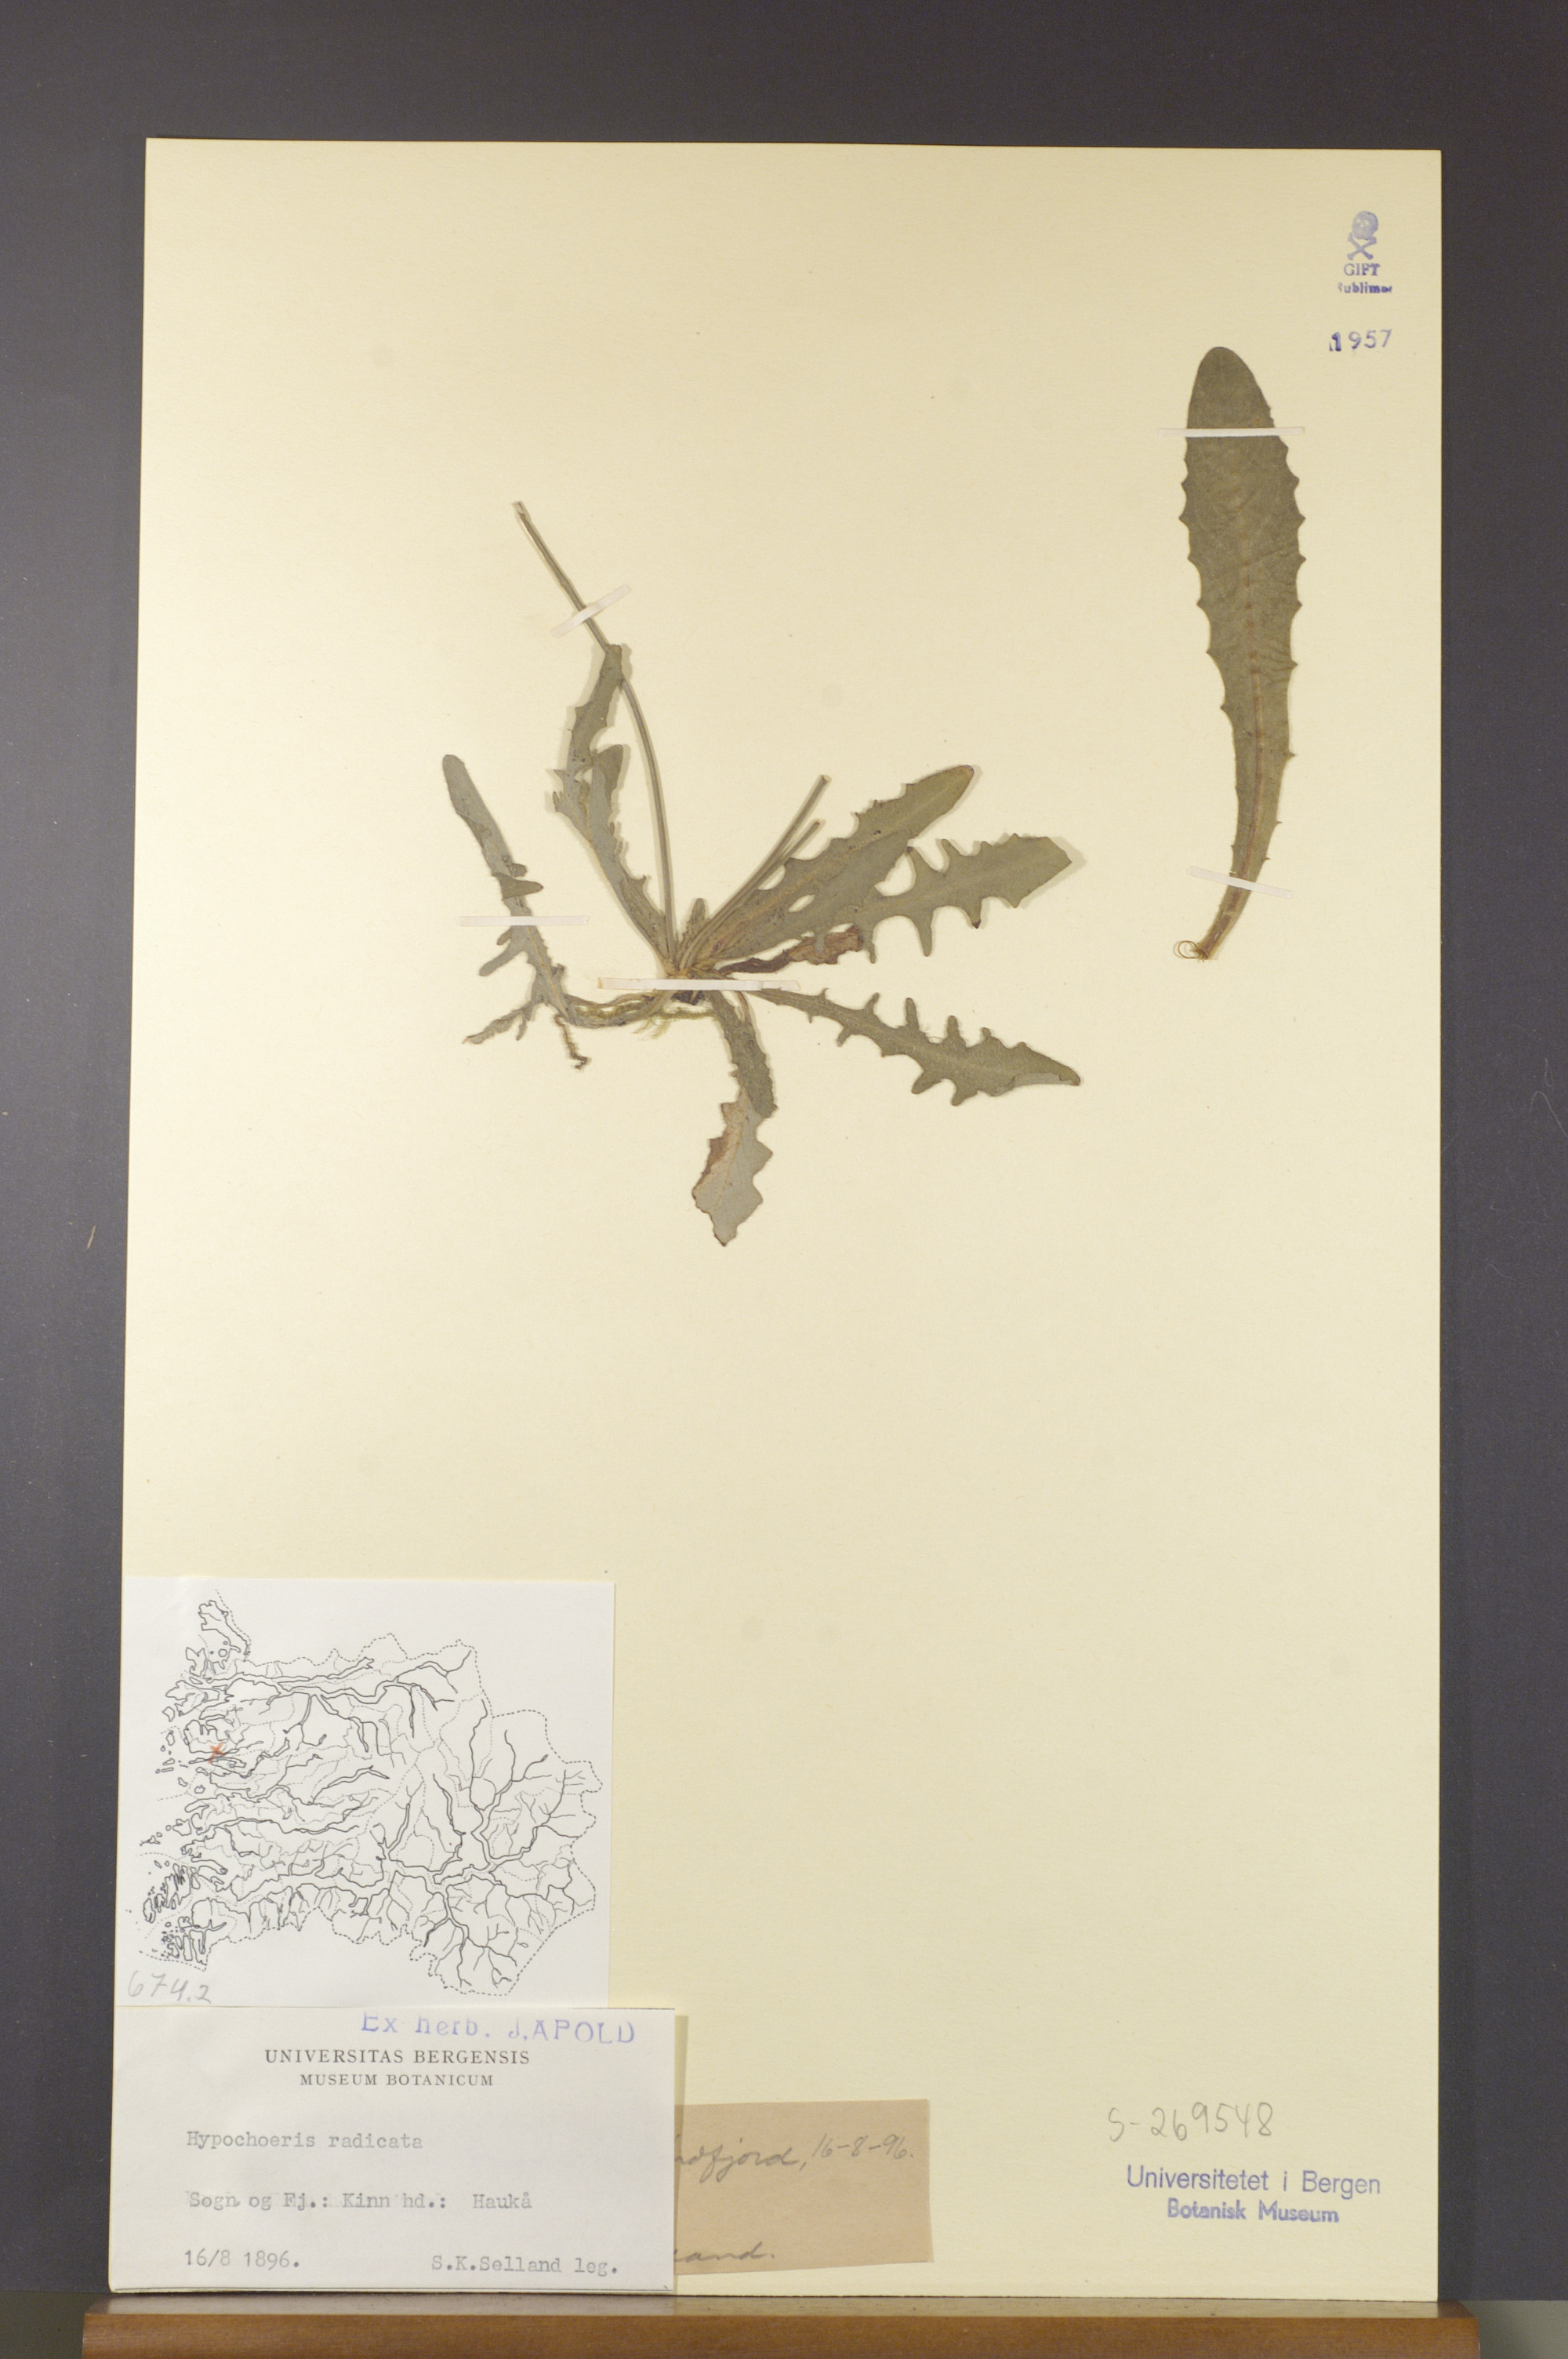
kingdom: Plantae
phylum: Tracheophyta
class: Magnoliopsida
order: Asterales
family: Asteraceae
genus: Hypochaeris
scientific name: Hypochaeris radicata
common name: Flatweed
